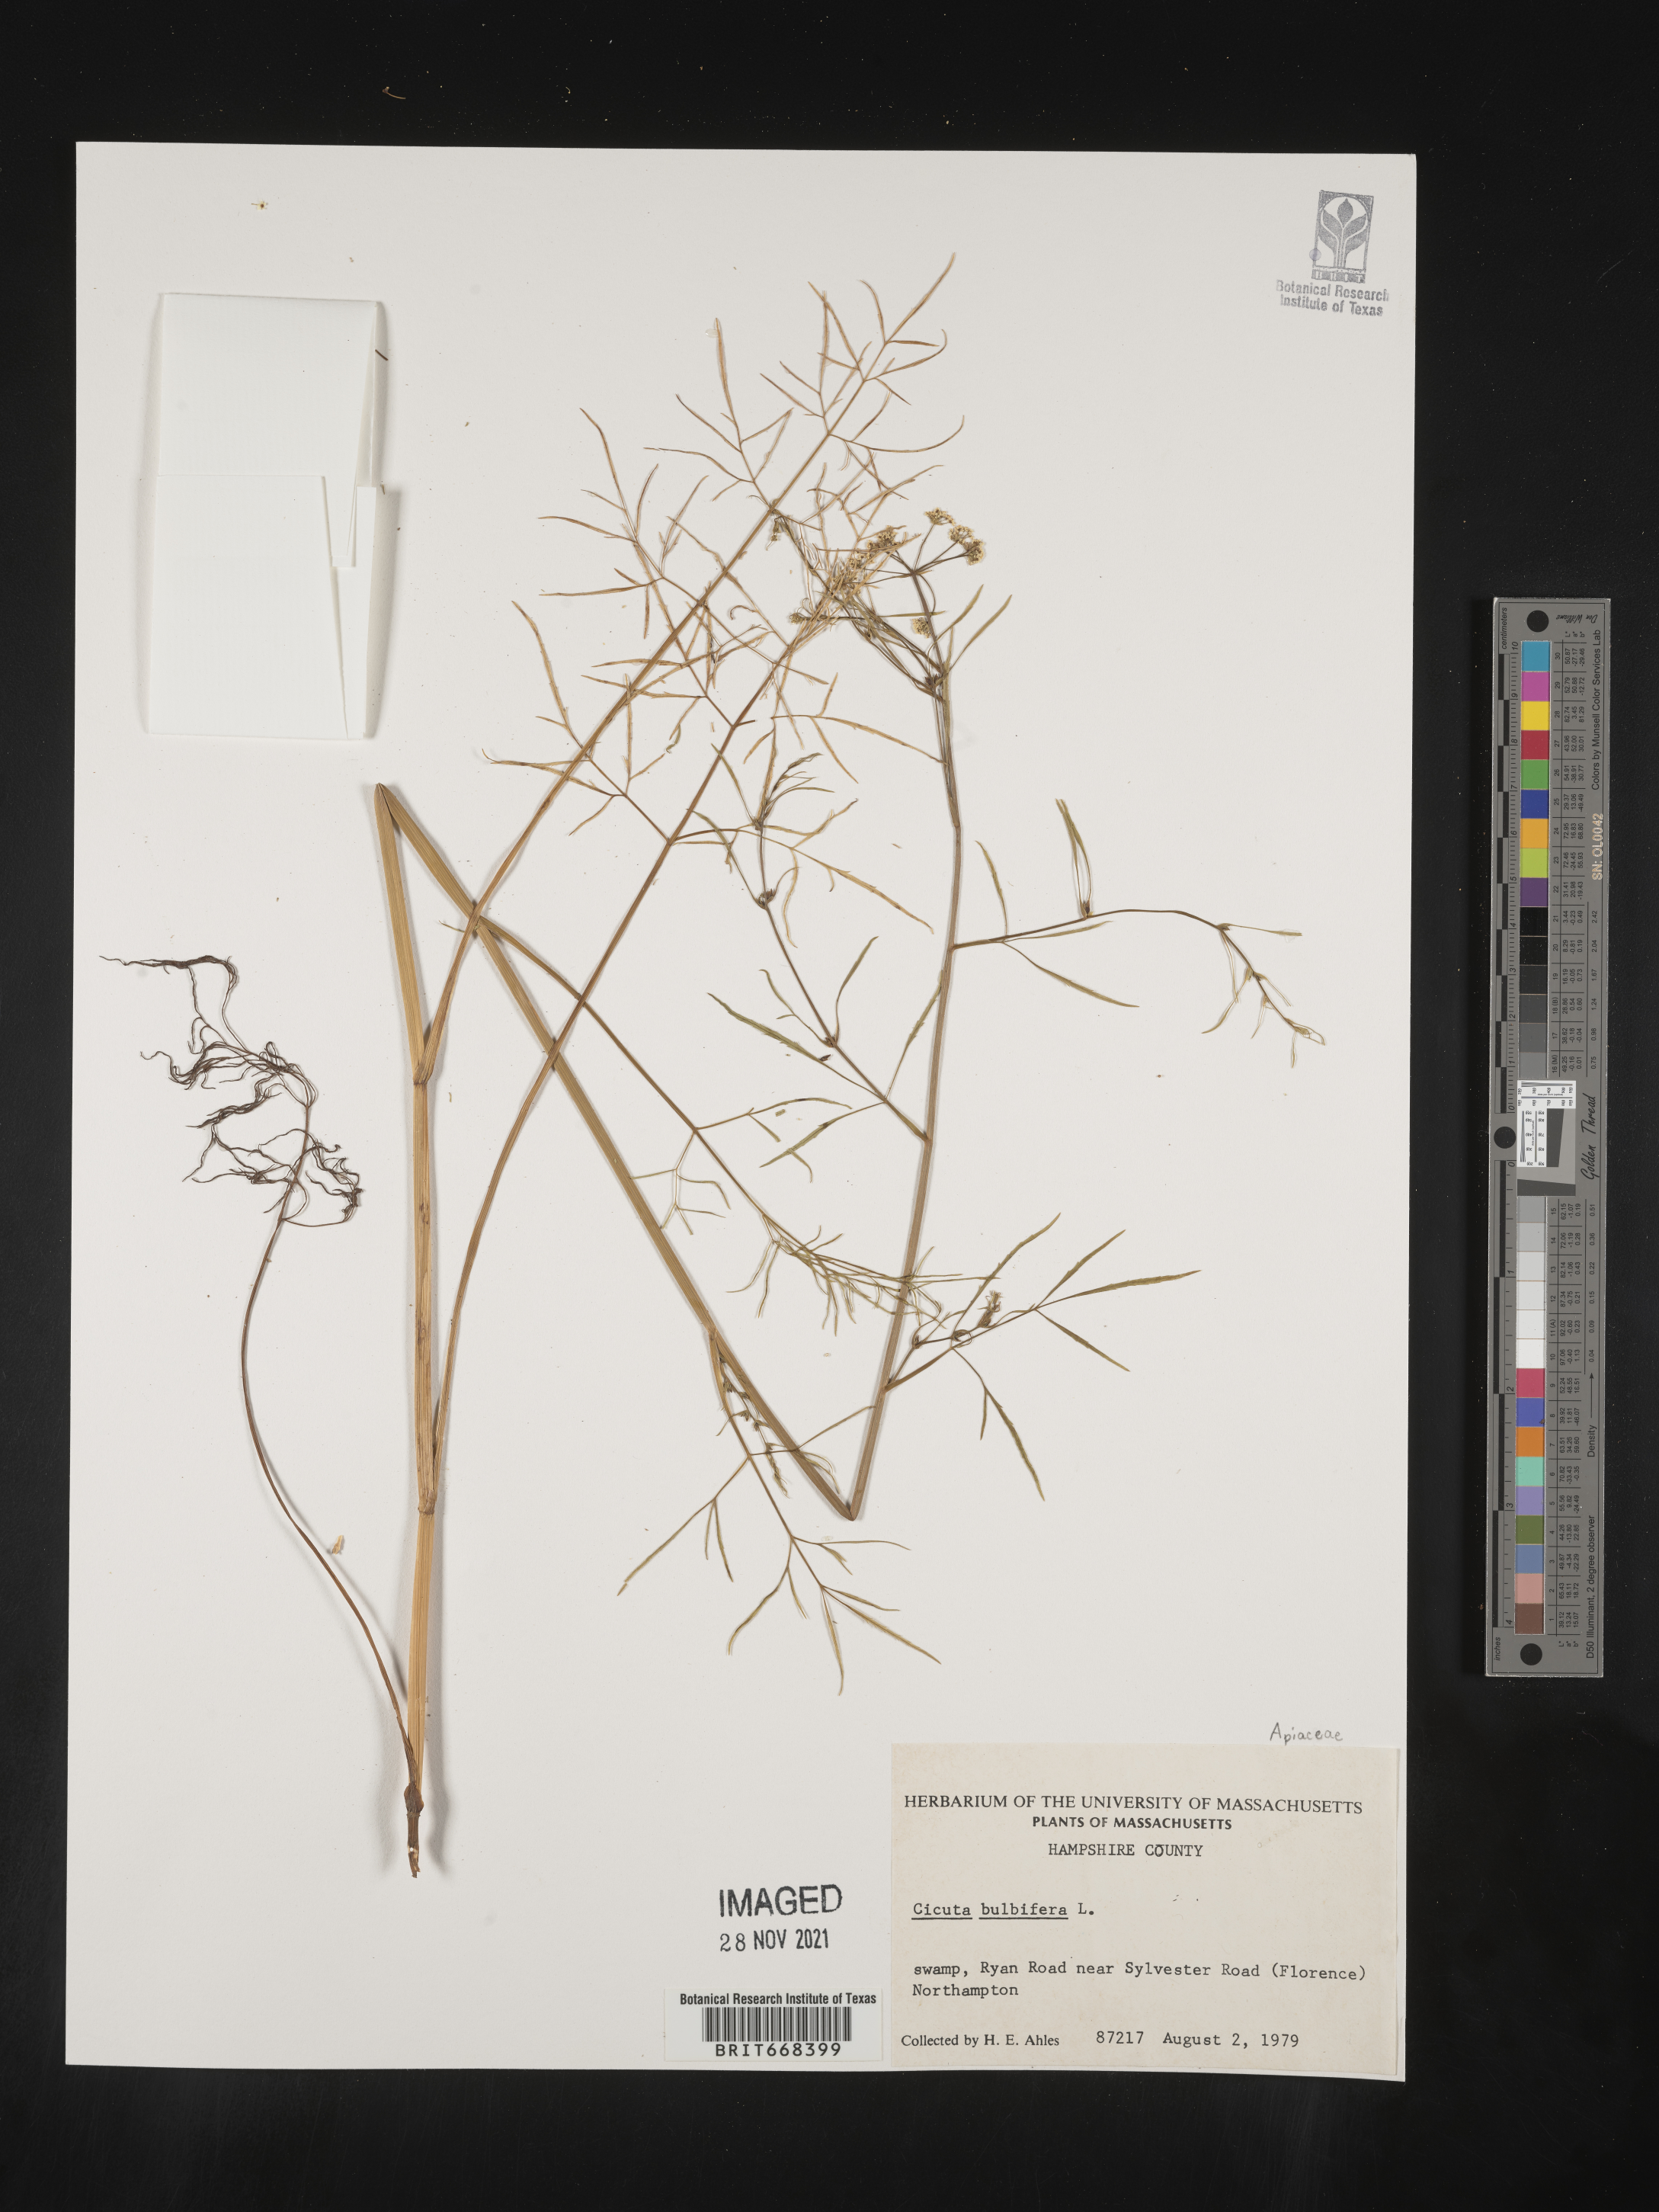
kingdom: Plantae
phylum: Tracheophyta
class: Magnoliopsida
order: Apiales
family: Apiaceae
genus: Cicuta
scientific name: Cicuta maculata
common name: Spotted cowbane
